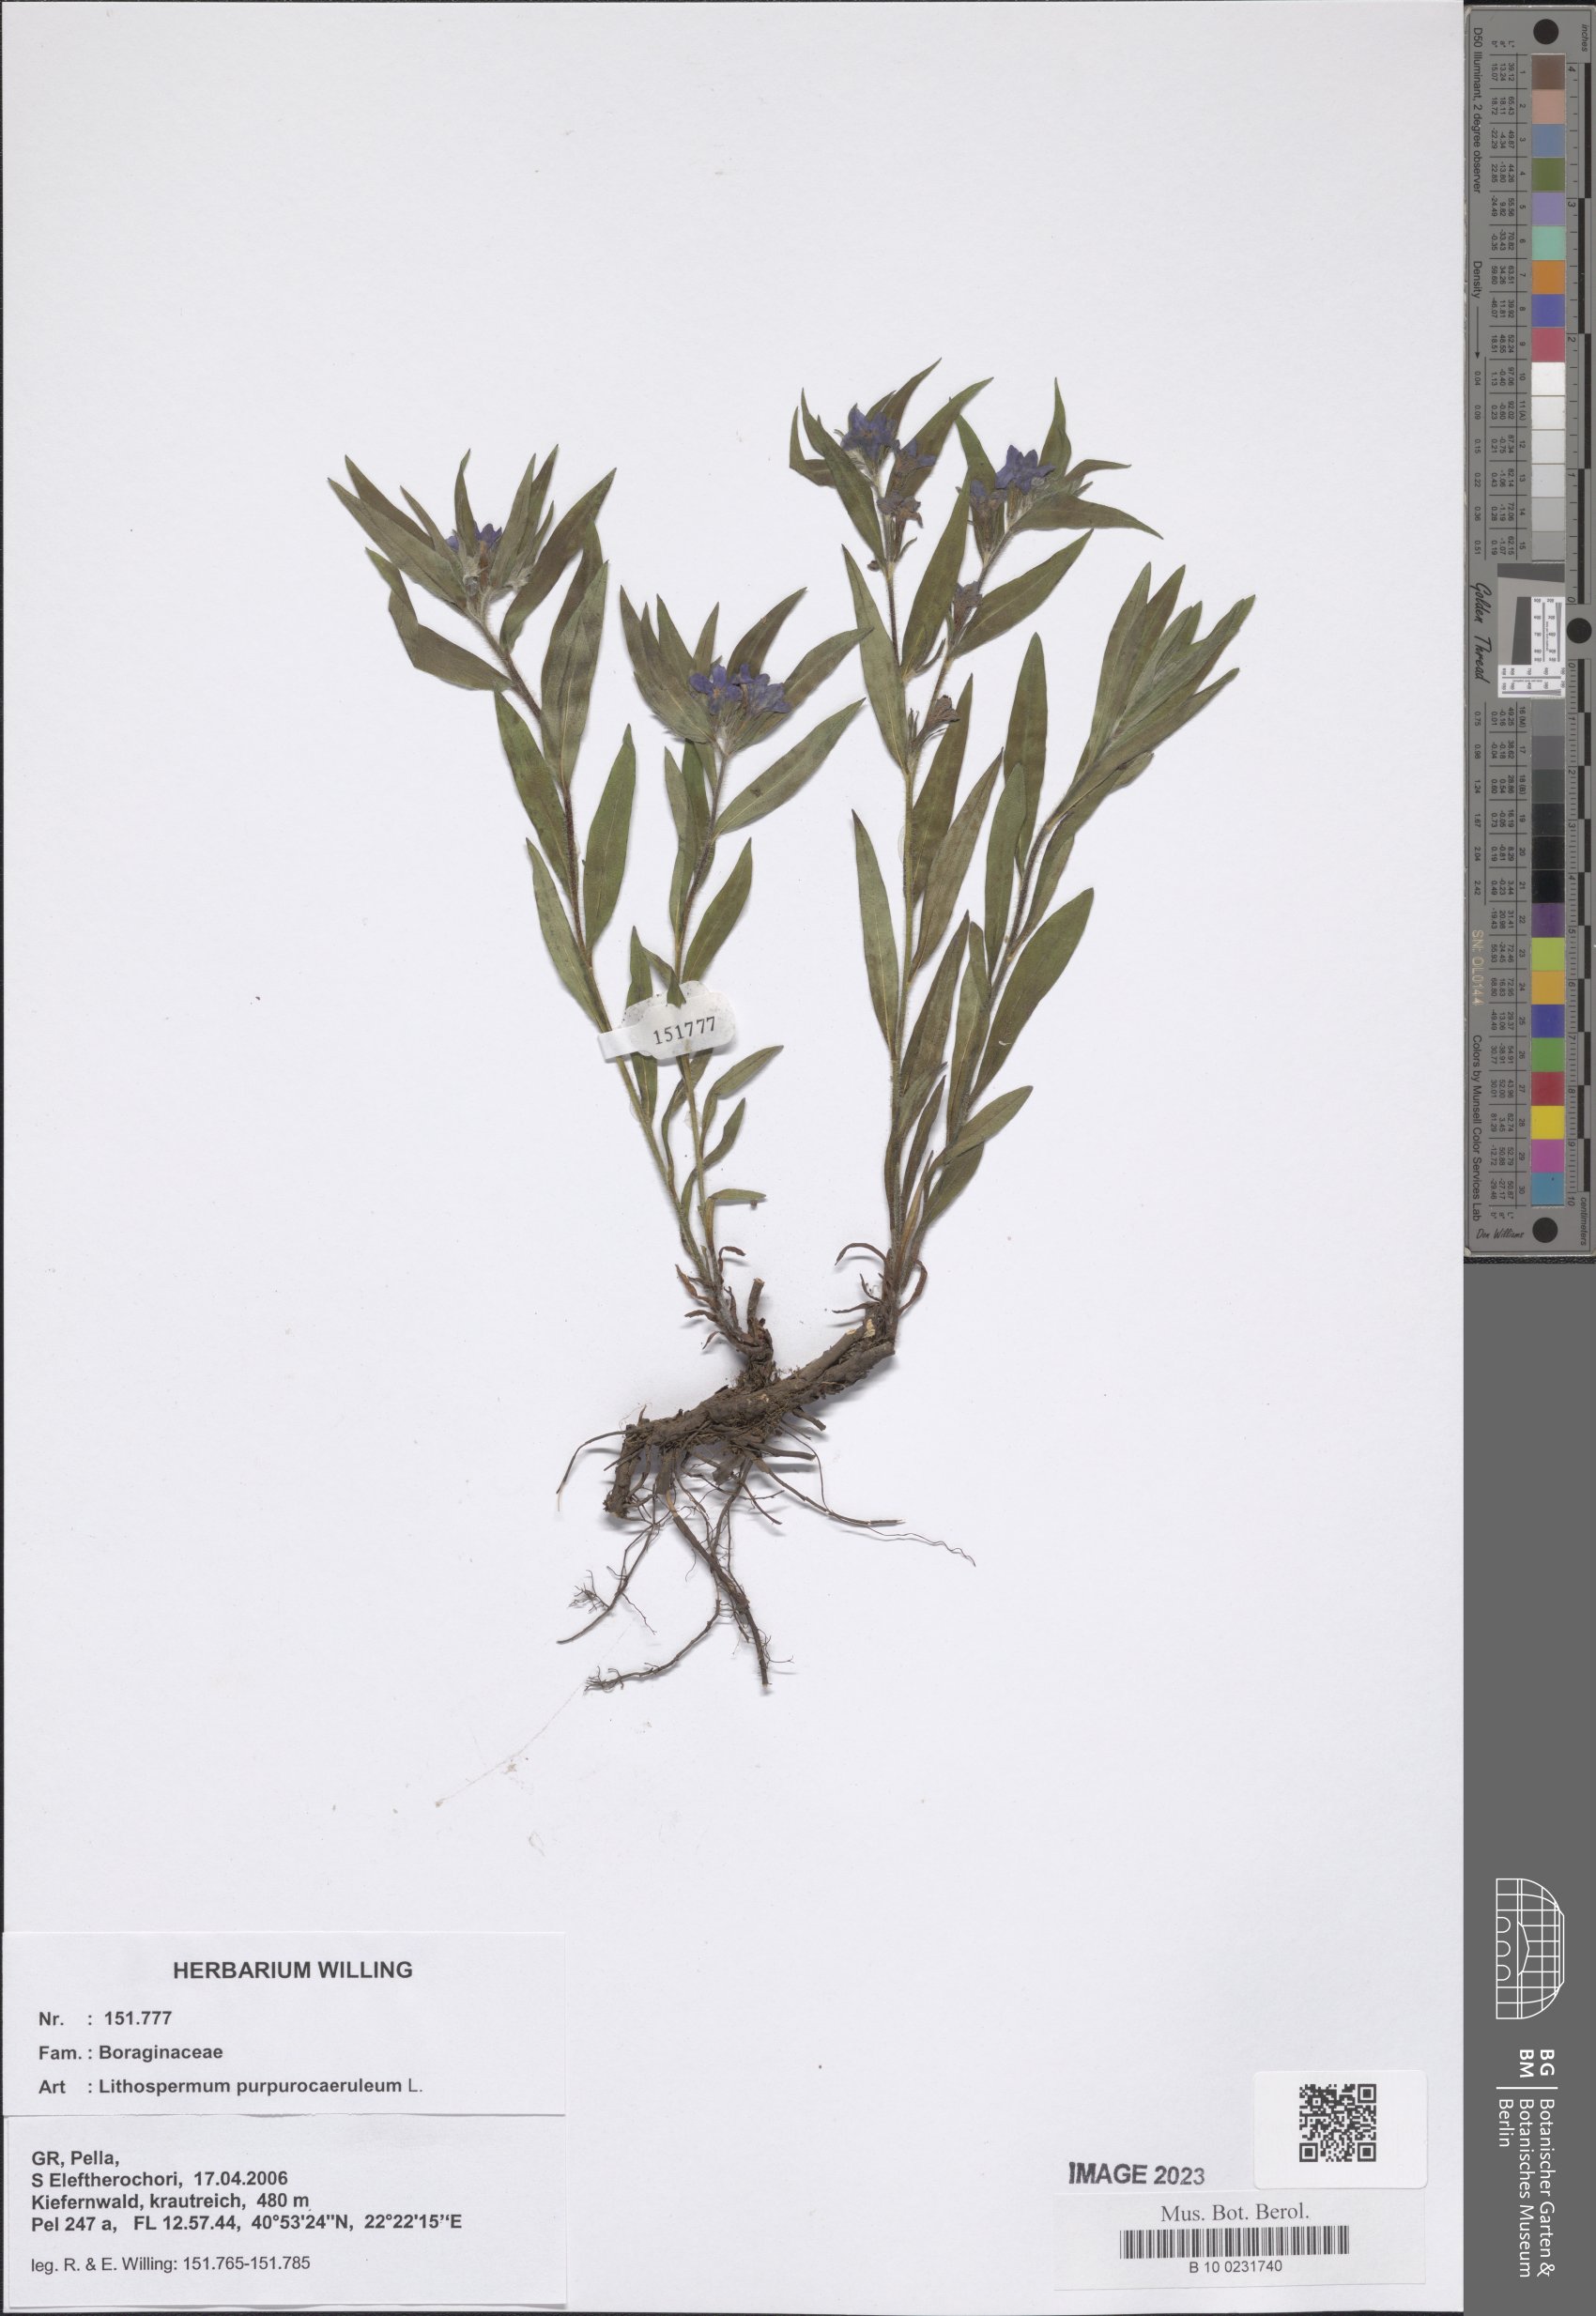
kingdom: Plantae
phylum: Tracheophyta
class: Magnoliopsida
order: Boraginales
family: Boraginaceae
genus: Aegonychon
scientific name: Aegonychon purpurocaeruleum
